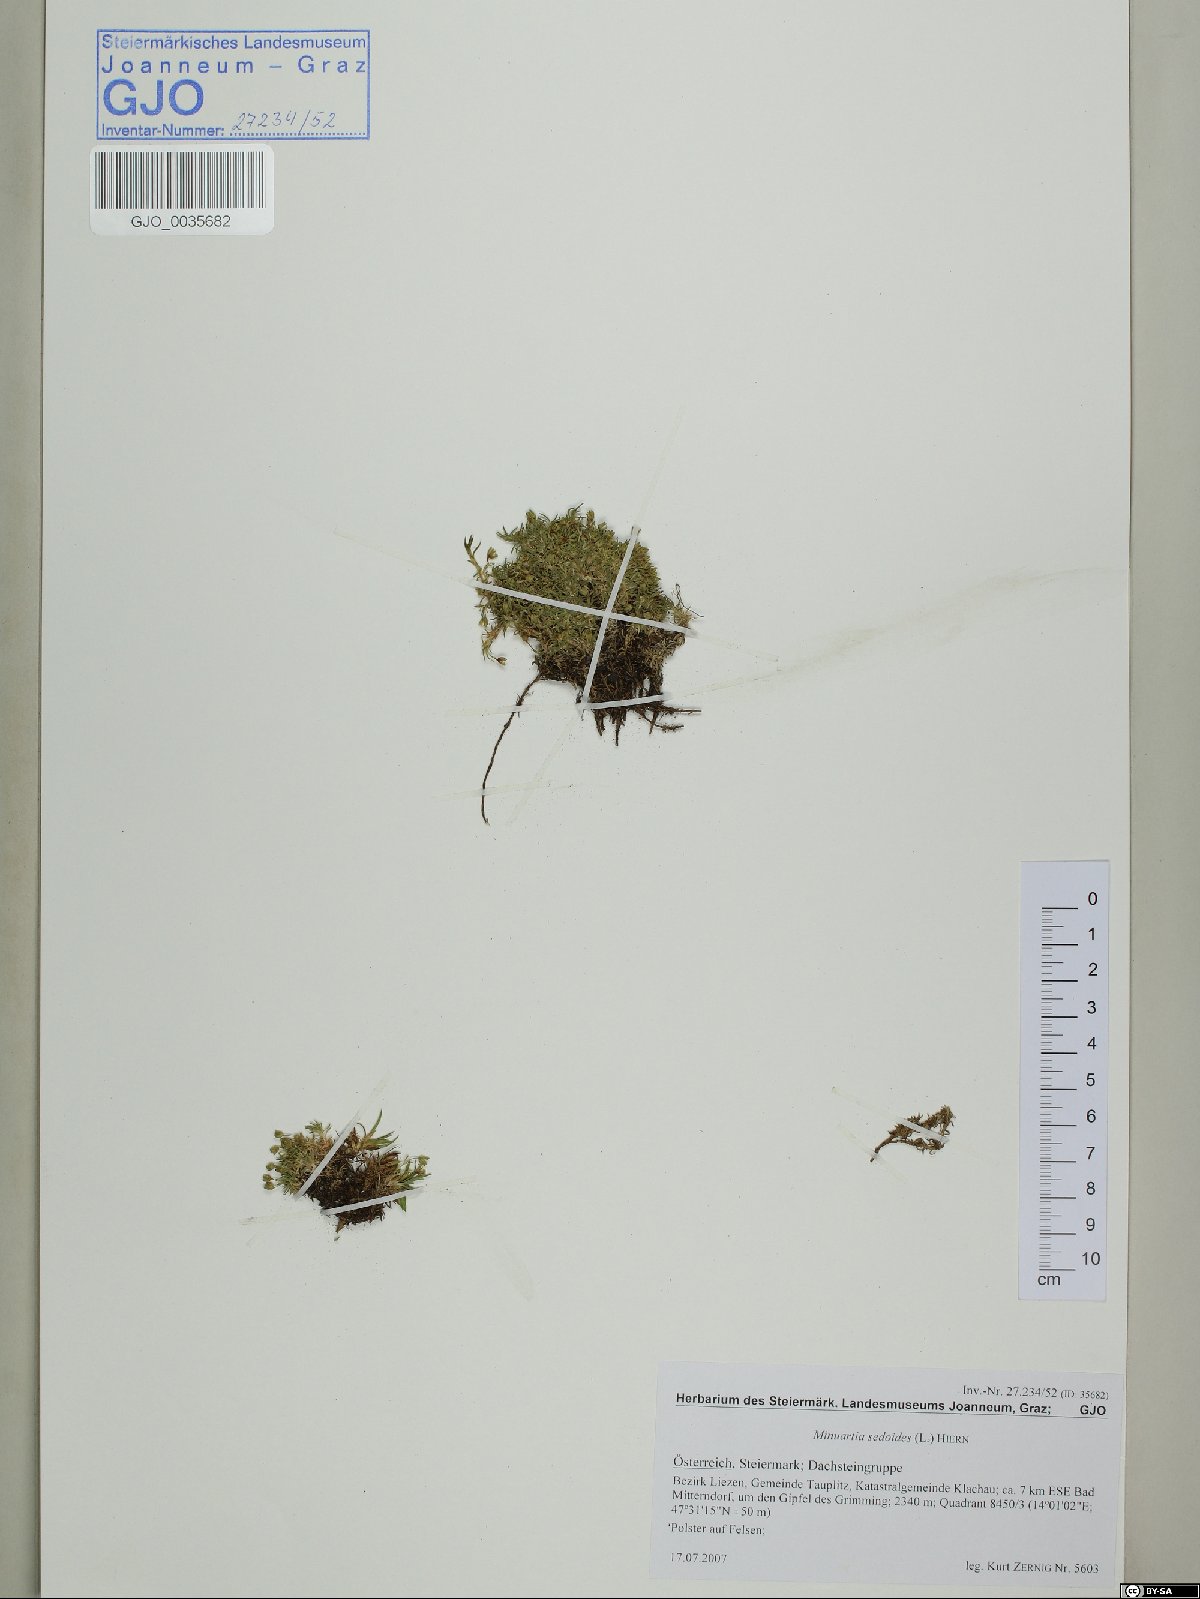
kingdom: Plantae
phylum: Tracheophyta
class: Magnoliopsida
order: Caryophyllales
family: Caryophyllaceae
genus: Cherleria
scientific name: Cherleria sedoides
